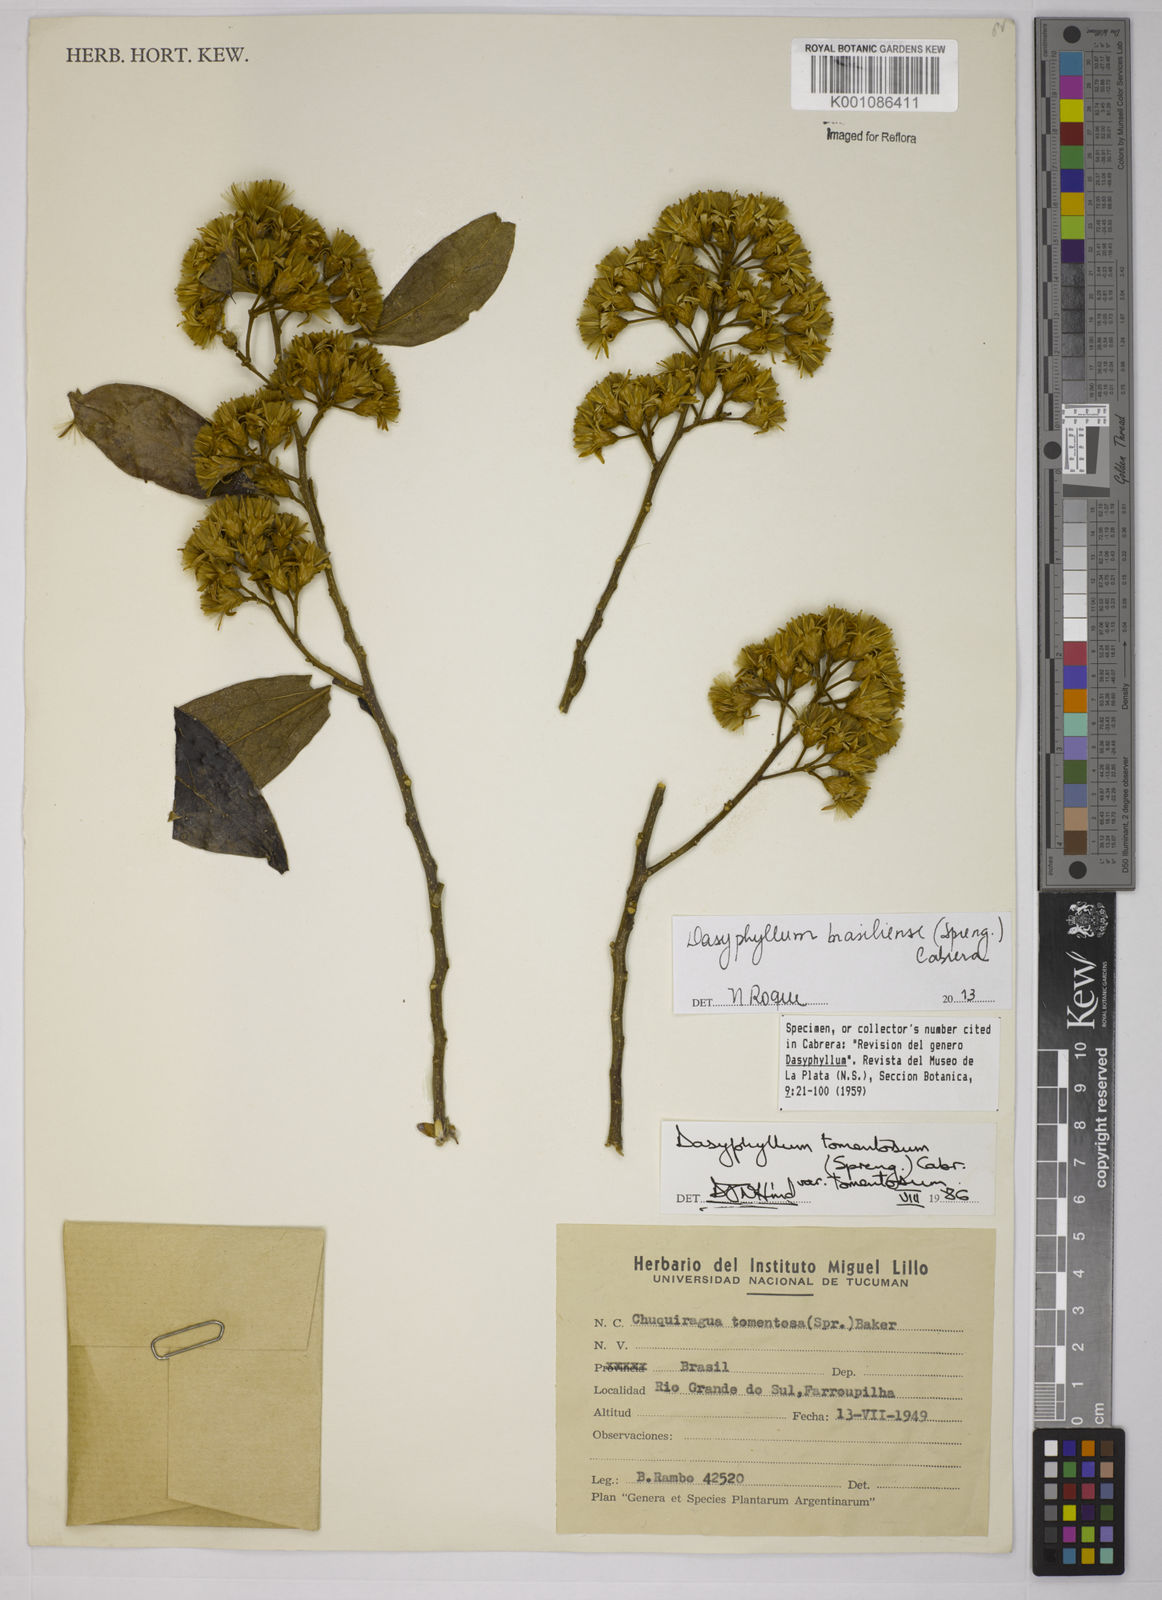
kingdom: Plantae
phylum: Tracheophyta
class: Magnoliopsida
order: Asterales
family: Asteraceae
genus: Dasyphyllum
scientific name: Dasyphyllum brasiliense
